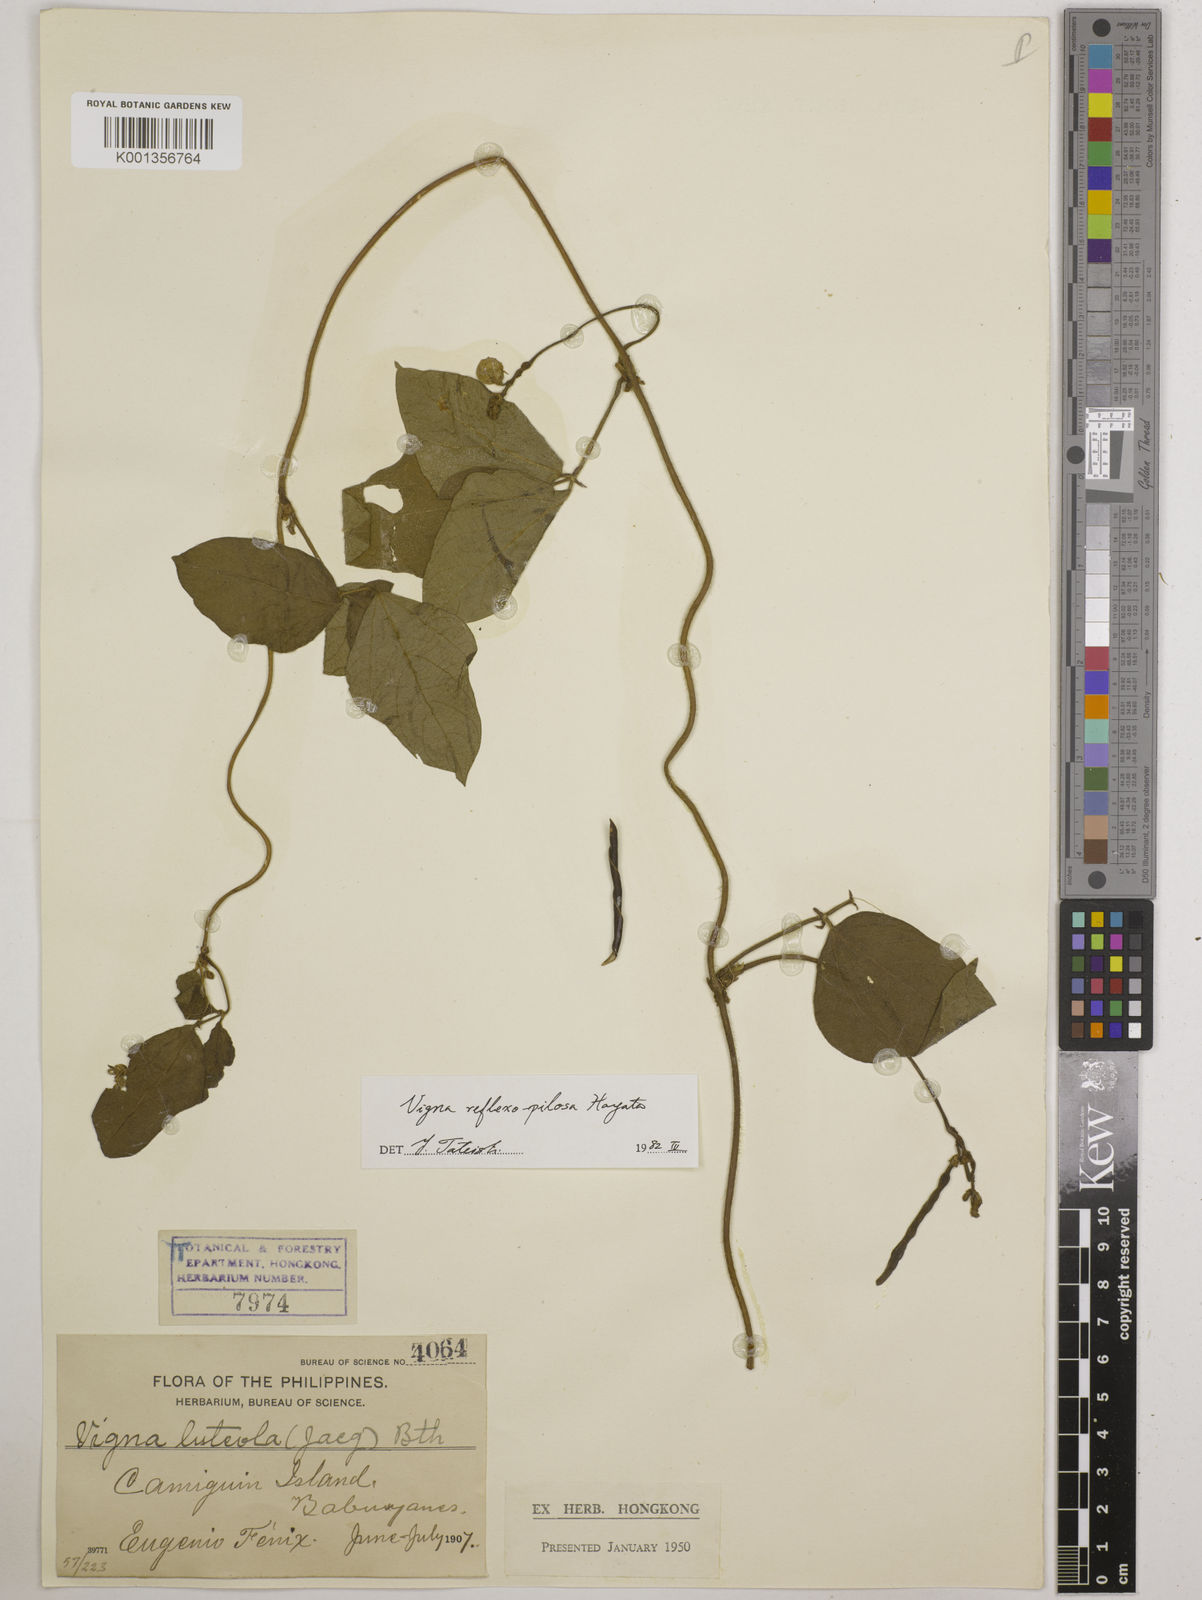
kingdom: Plantae
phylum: Tracheophyta
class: Magnoliopsida
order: Fabales
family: Fabaceae
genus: Vigna
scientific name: Vigna reflexopilosa
